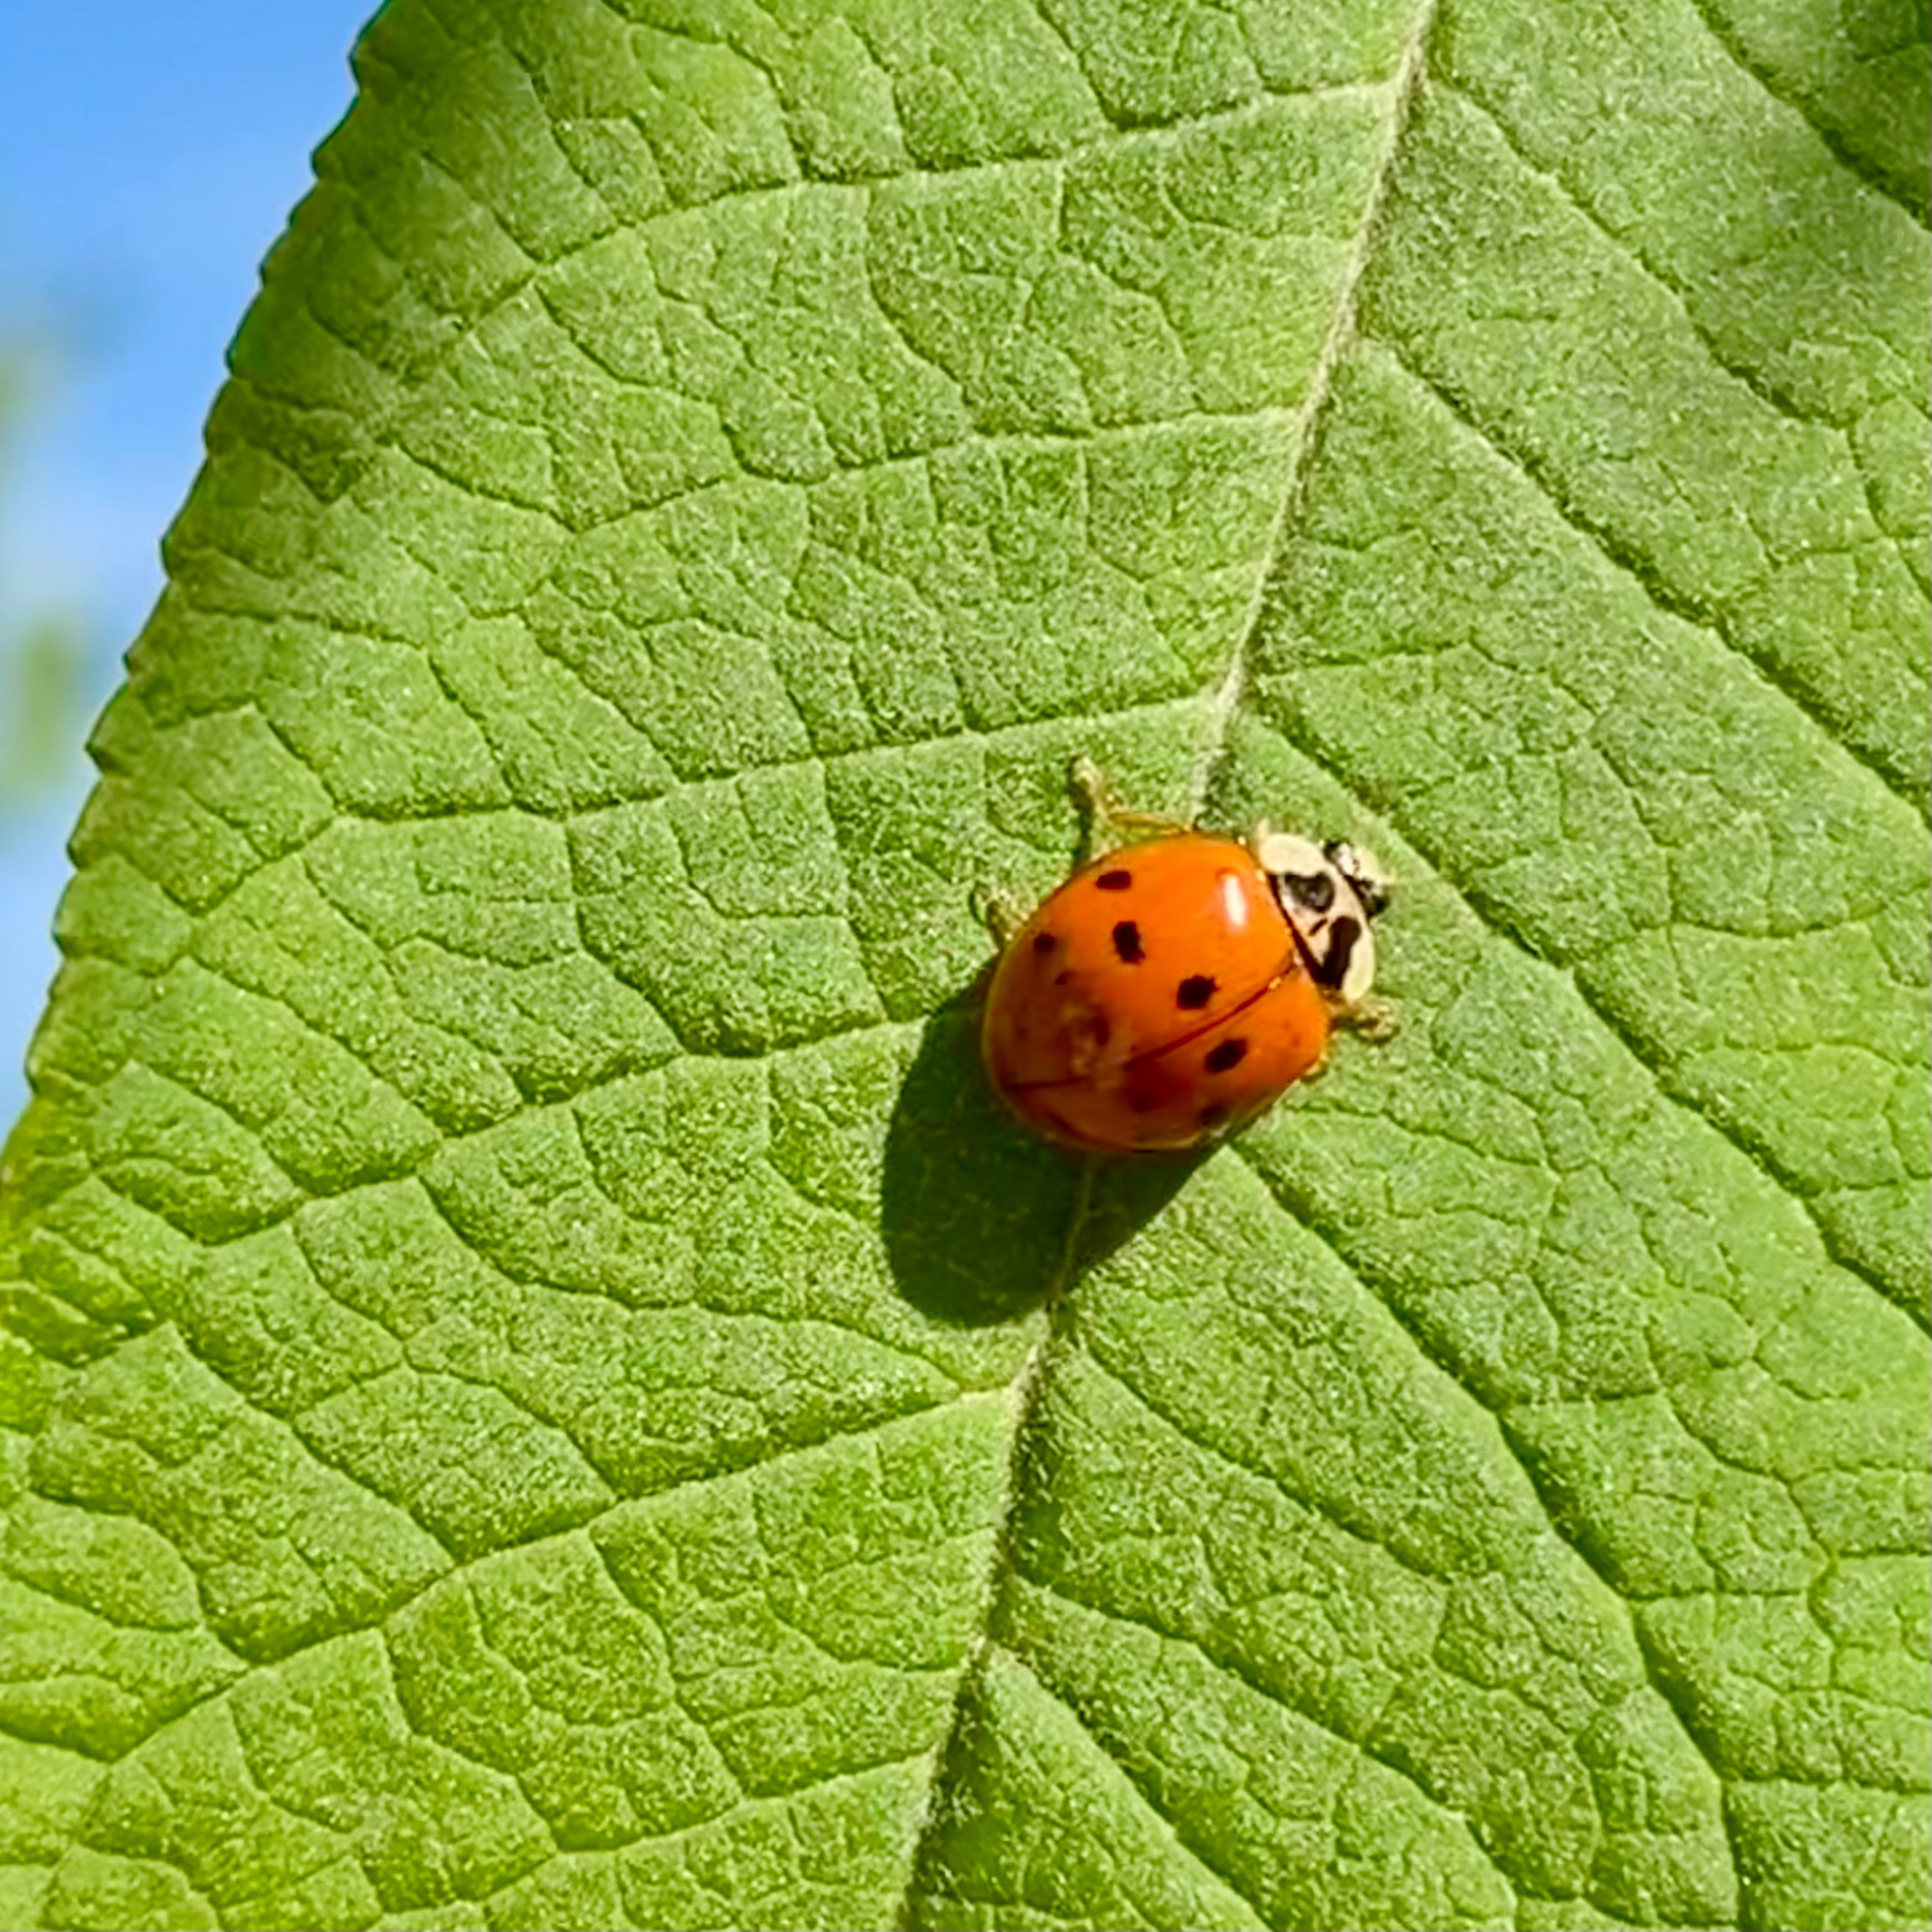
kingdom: Animalia
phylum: Arthropoda
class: Insecta
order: Coleoptera
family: Coccinellidae
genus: Harmonia
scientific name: Harmonia axyridis
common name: Harlekinmariehøne
